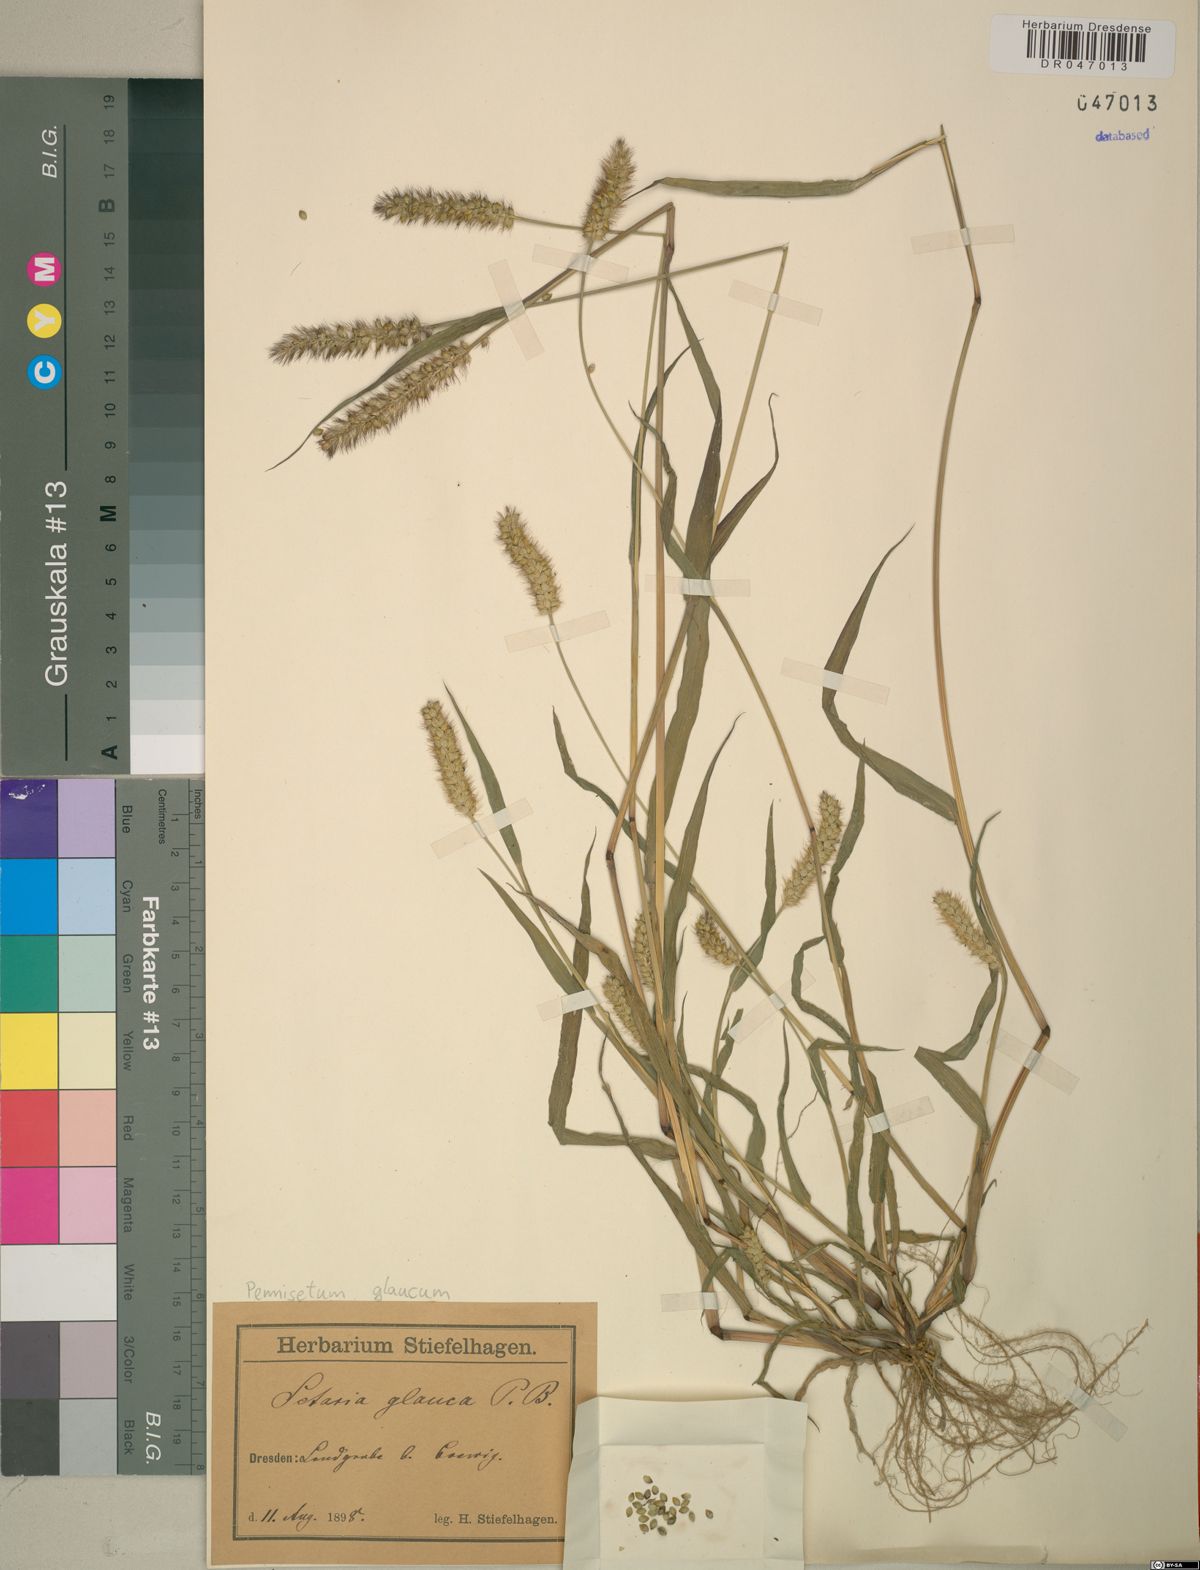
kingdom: Plantae
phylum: Tracheophyta
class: Liliopsida
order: Poales
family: Poaceae
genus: Cenchrus
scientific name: Cenchrus americanus
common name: Pearl millet
